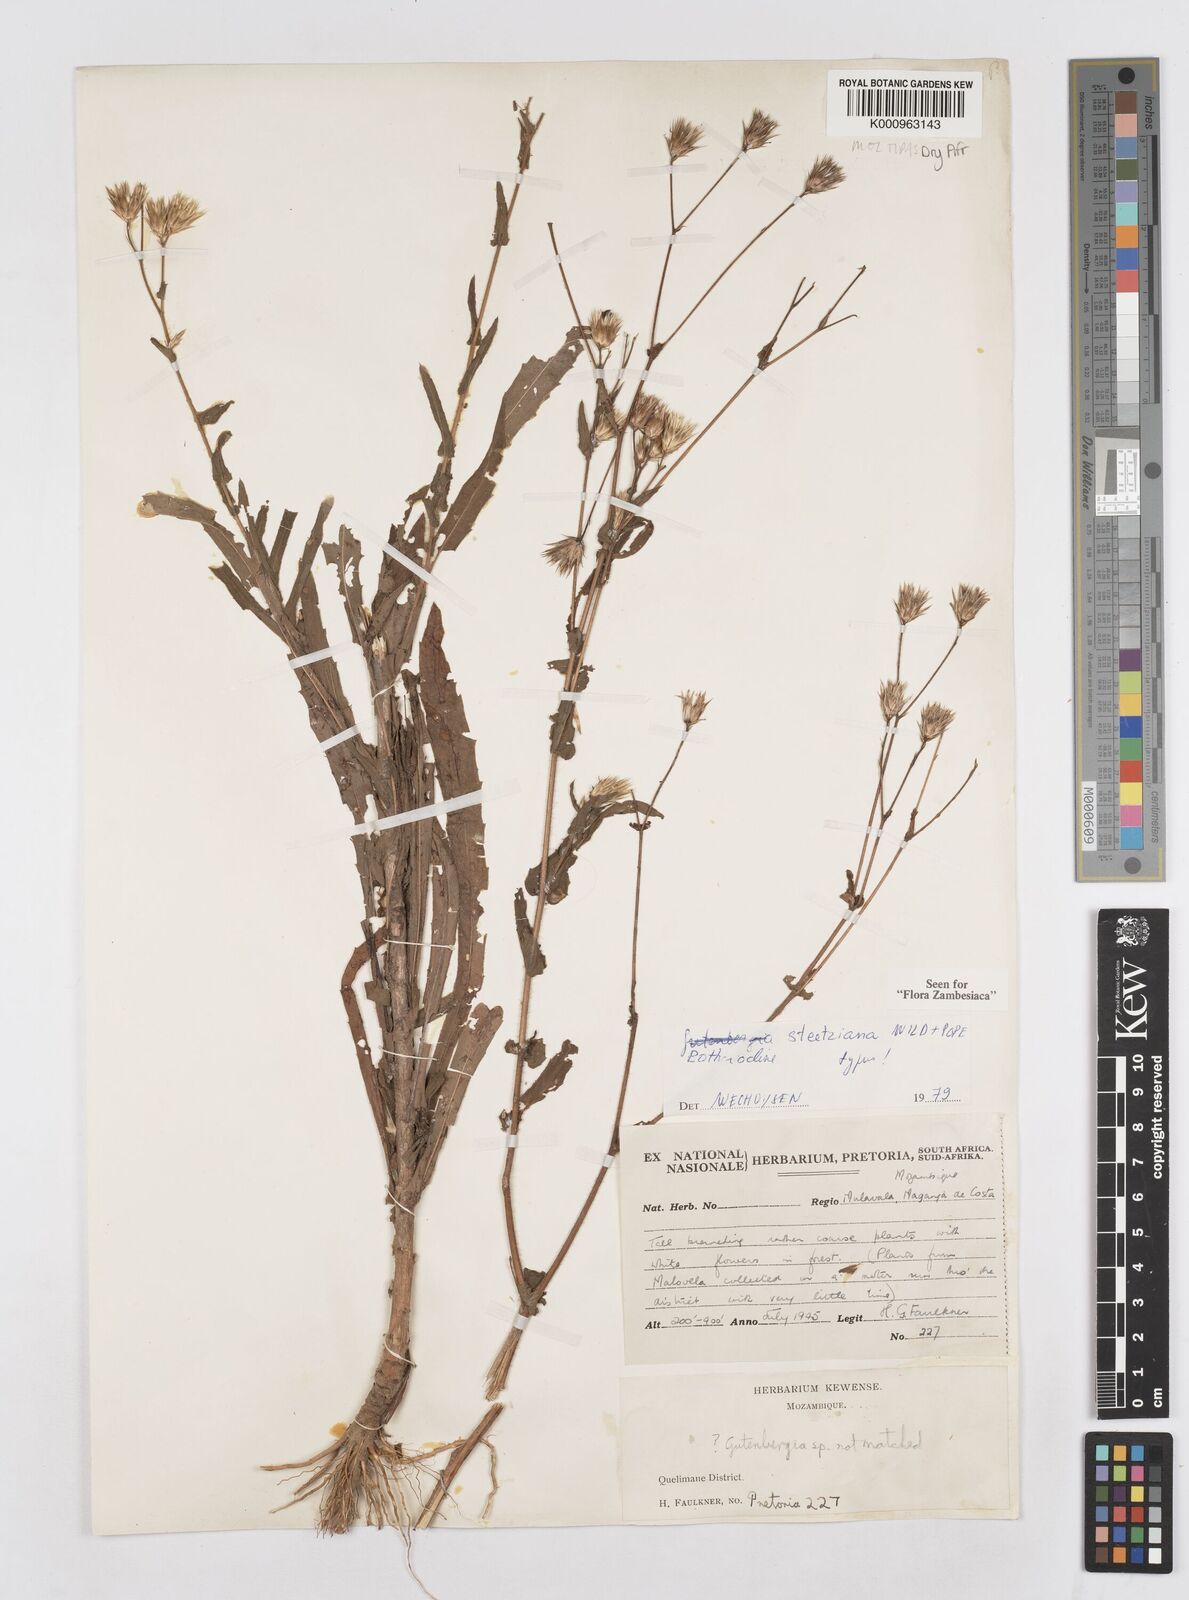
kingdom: Plantae
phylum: Tracheophyta
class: Magnoliopsida
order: Asterales
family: Asteraceae
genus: Bothriocline
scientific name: Bothriocline steetziana
